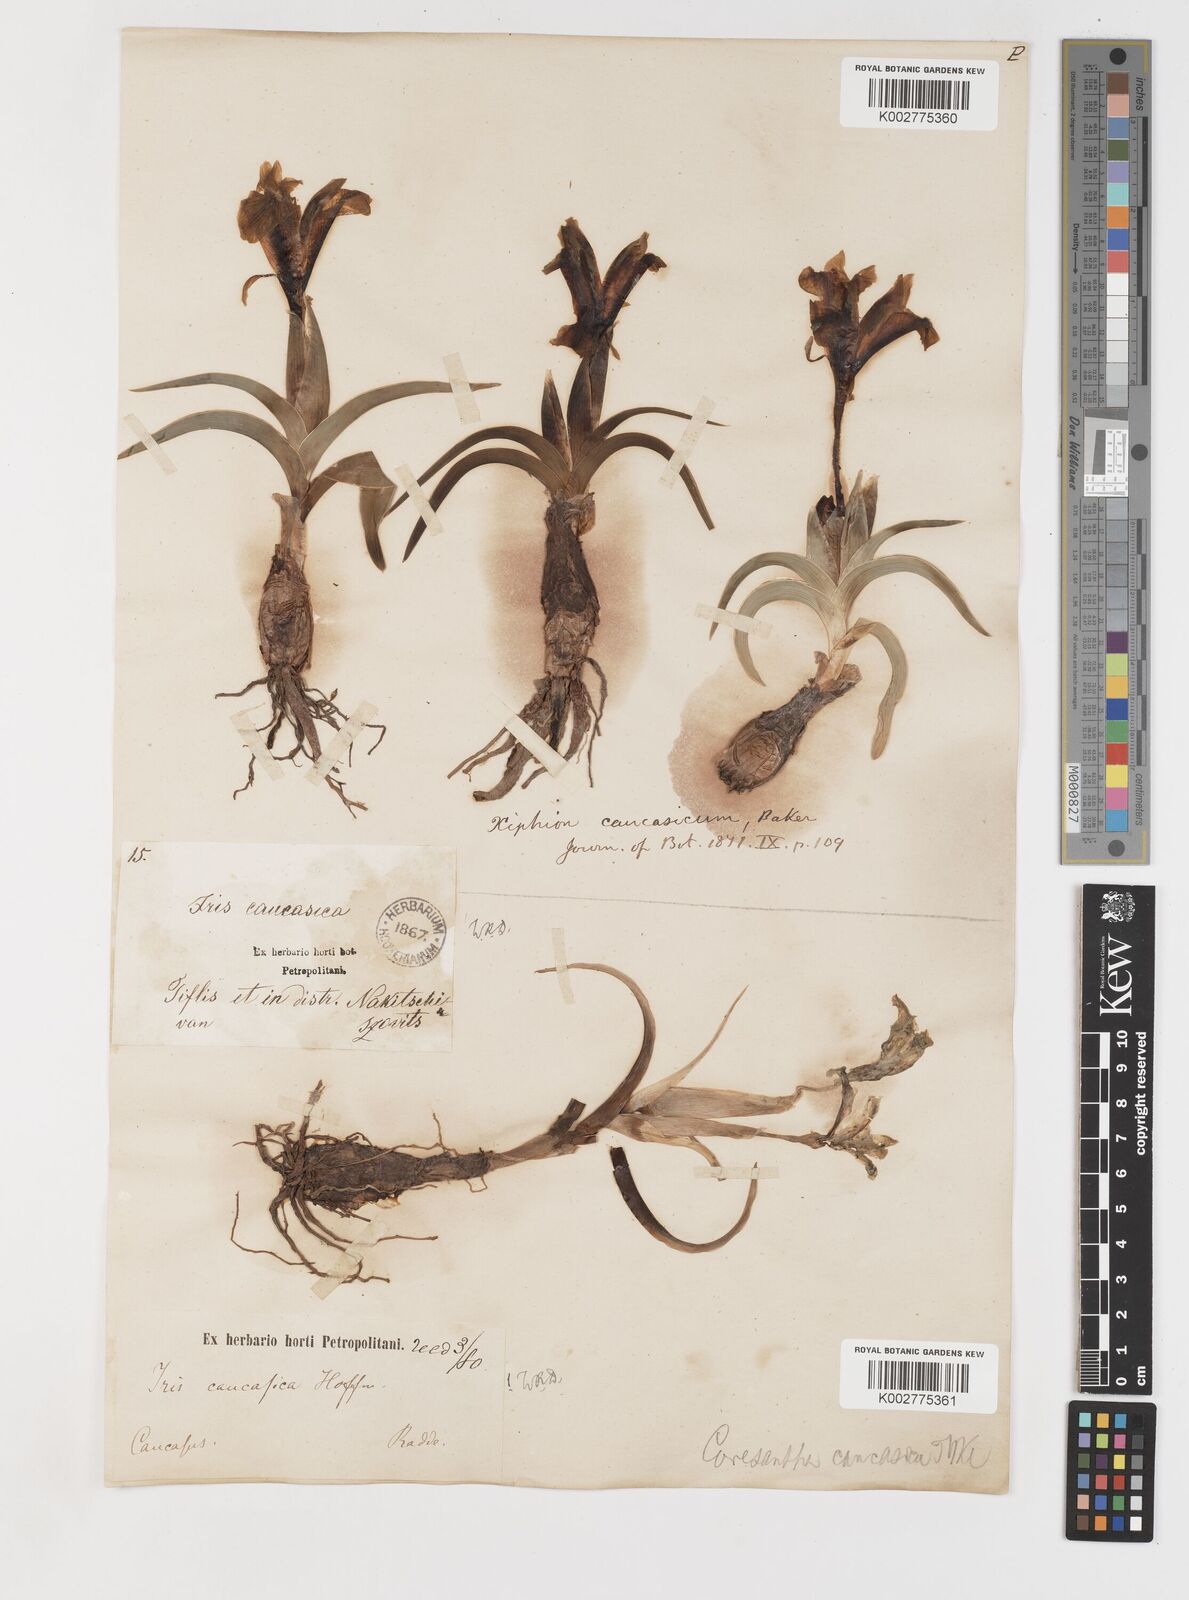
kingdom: Plantae
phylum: Tracheophyta
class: Liliopsida
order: Asparagales
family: Iridaceae
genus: Iris
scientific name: Iris caucasica
